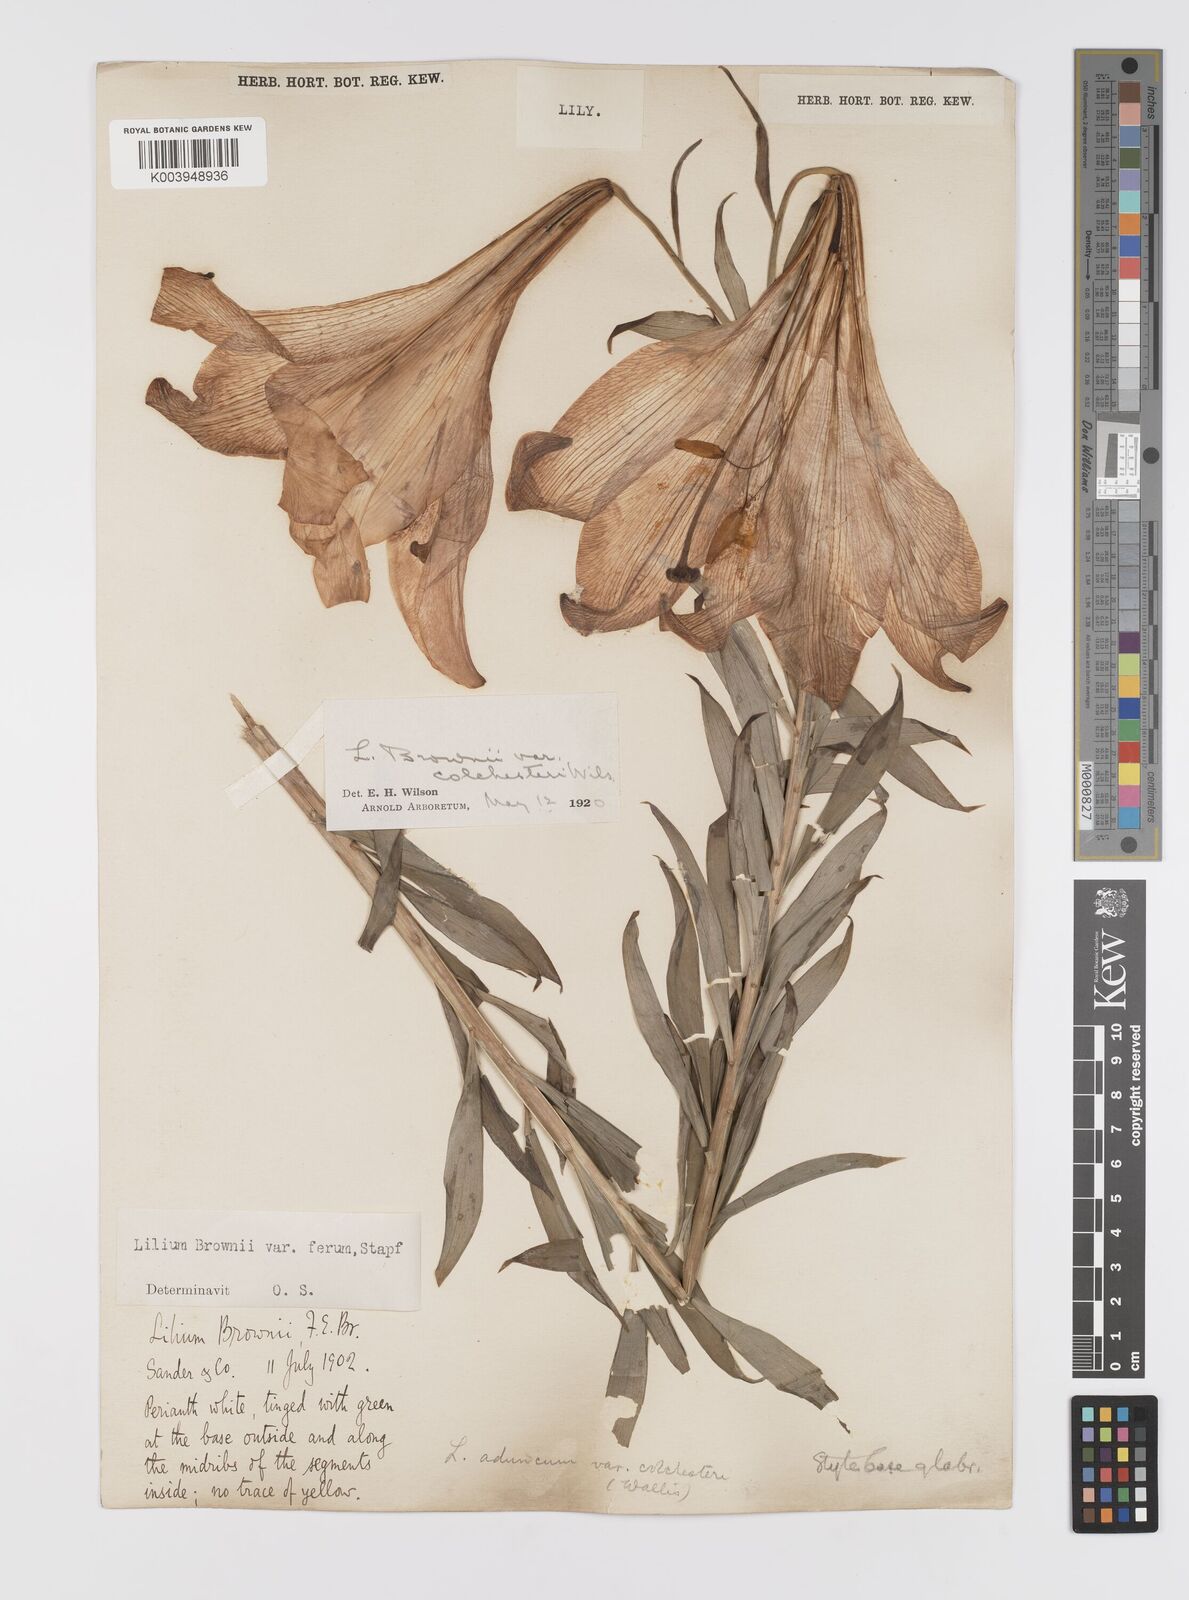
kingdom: Plantae
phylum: Tracheophyta
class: Liliopsida
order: Liliales
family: Liliaceae
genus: Lilium
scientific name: Lilium japonicum
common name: Japanese lily
